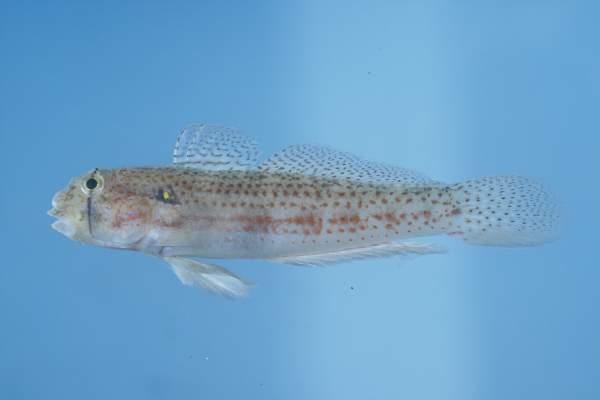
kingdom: Animalia
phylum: Chordata
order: Perciformes
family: Gobiidae
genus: Gnatholepis
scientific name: Gnatholepis cauerensis
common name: Bridled goby
